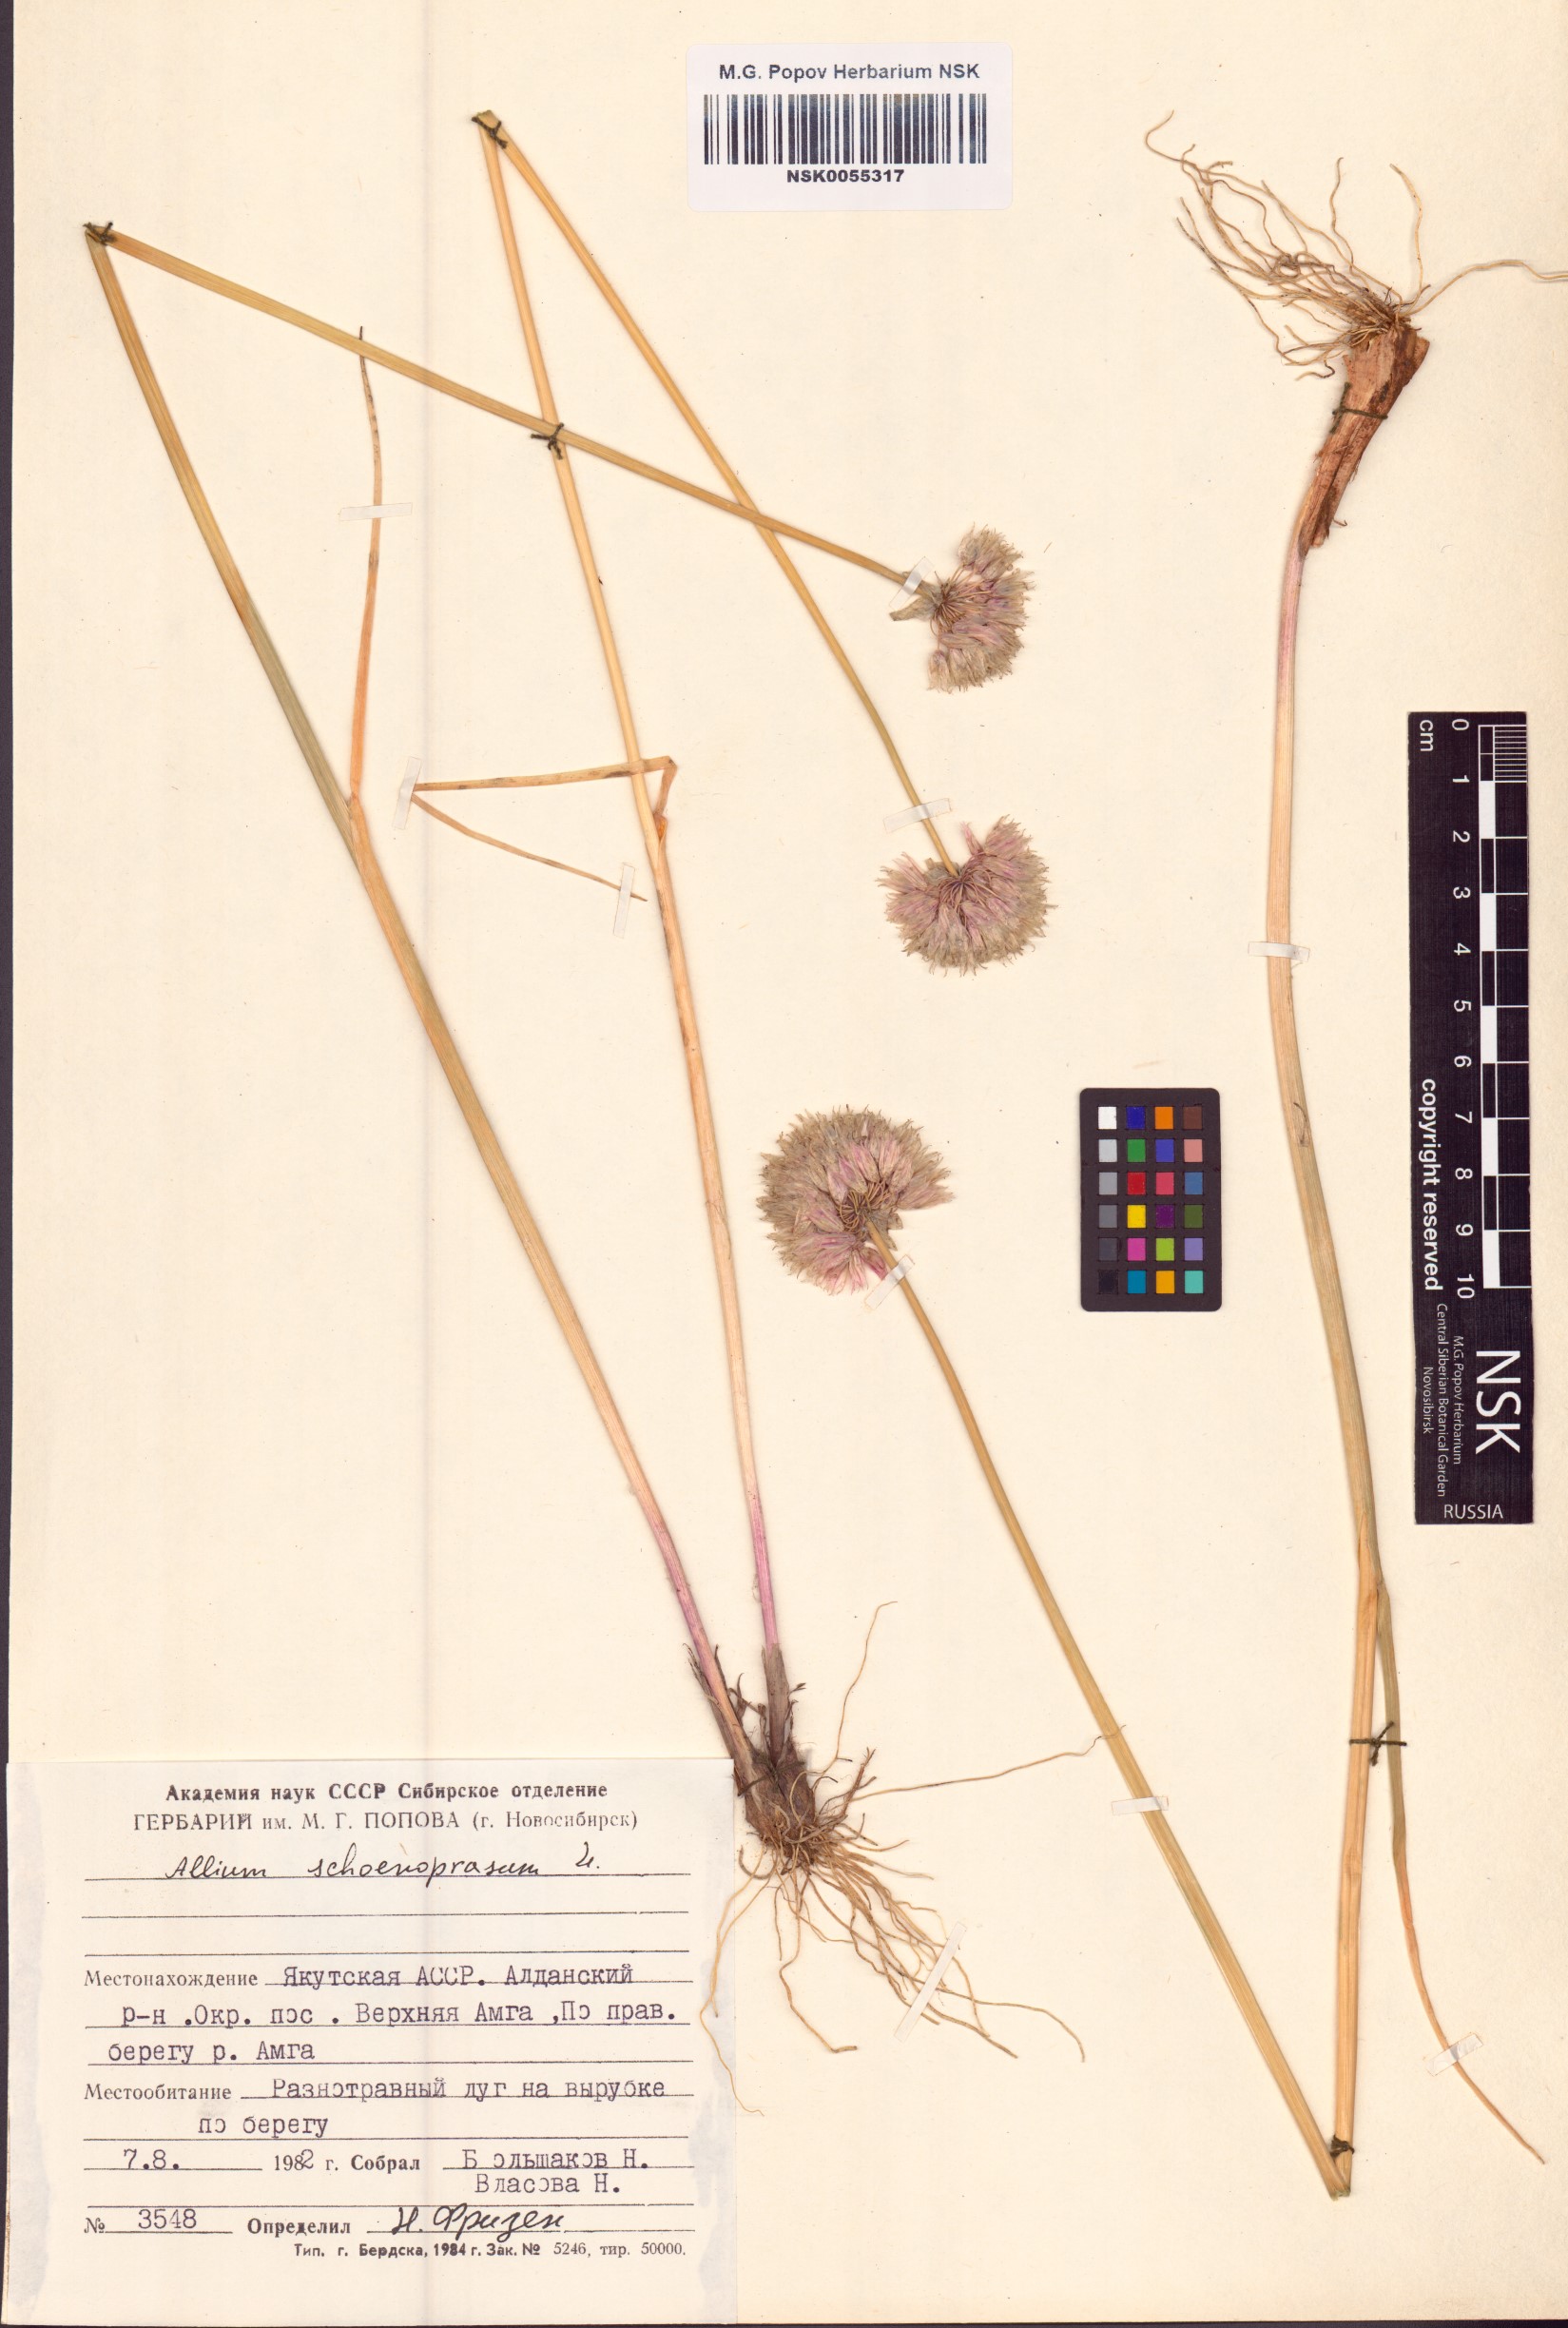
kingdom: Plantae
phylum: Tracheophyta
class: Liliopsida
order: Asparagales
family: Amaryllidaceae
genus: Allium
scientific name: Allium schoenoprasum
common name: Chives
